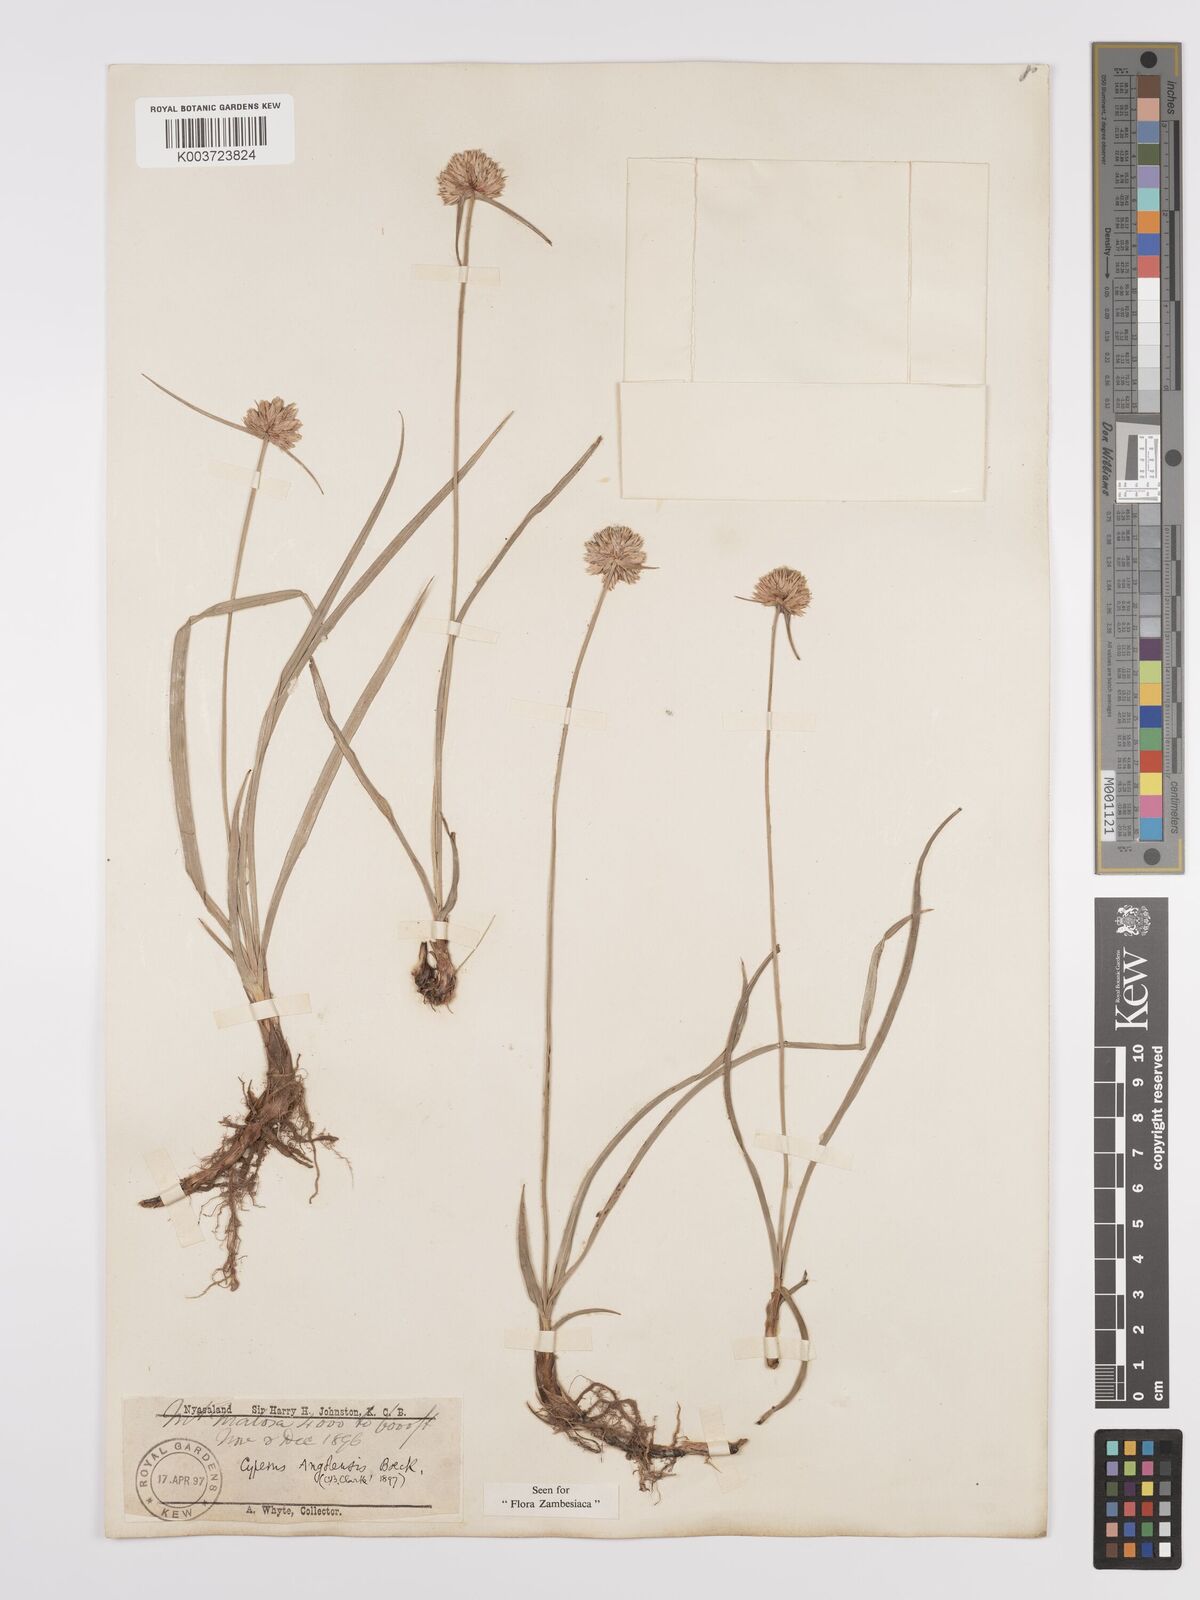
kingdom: Plantae
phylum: Tracheophyta
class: Liliopsida
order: Poales
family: Cyperaceae
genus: Cyperus
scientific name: Cyperus angolensis
